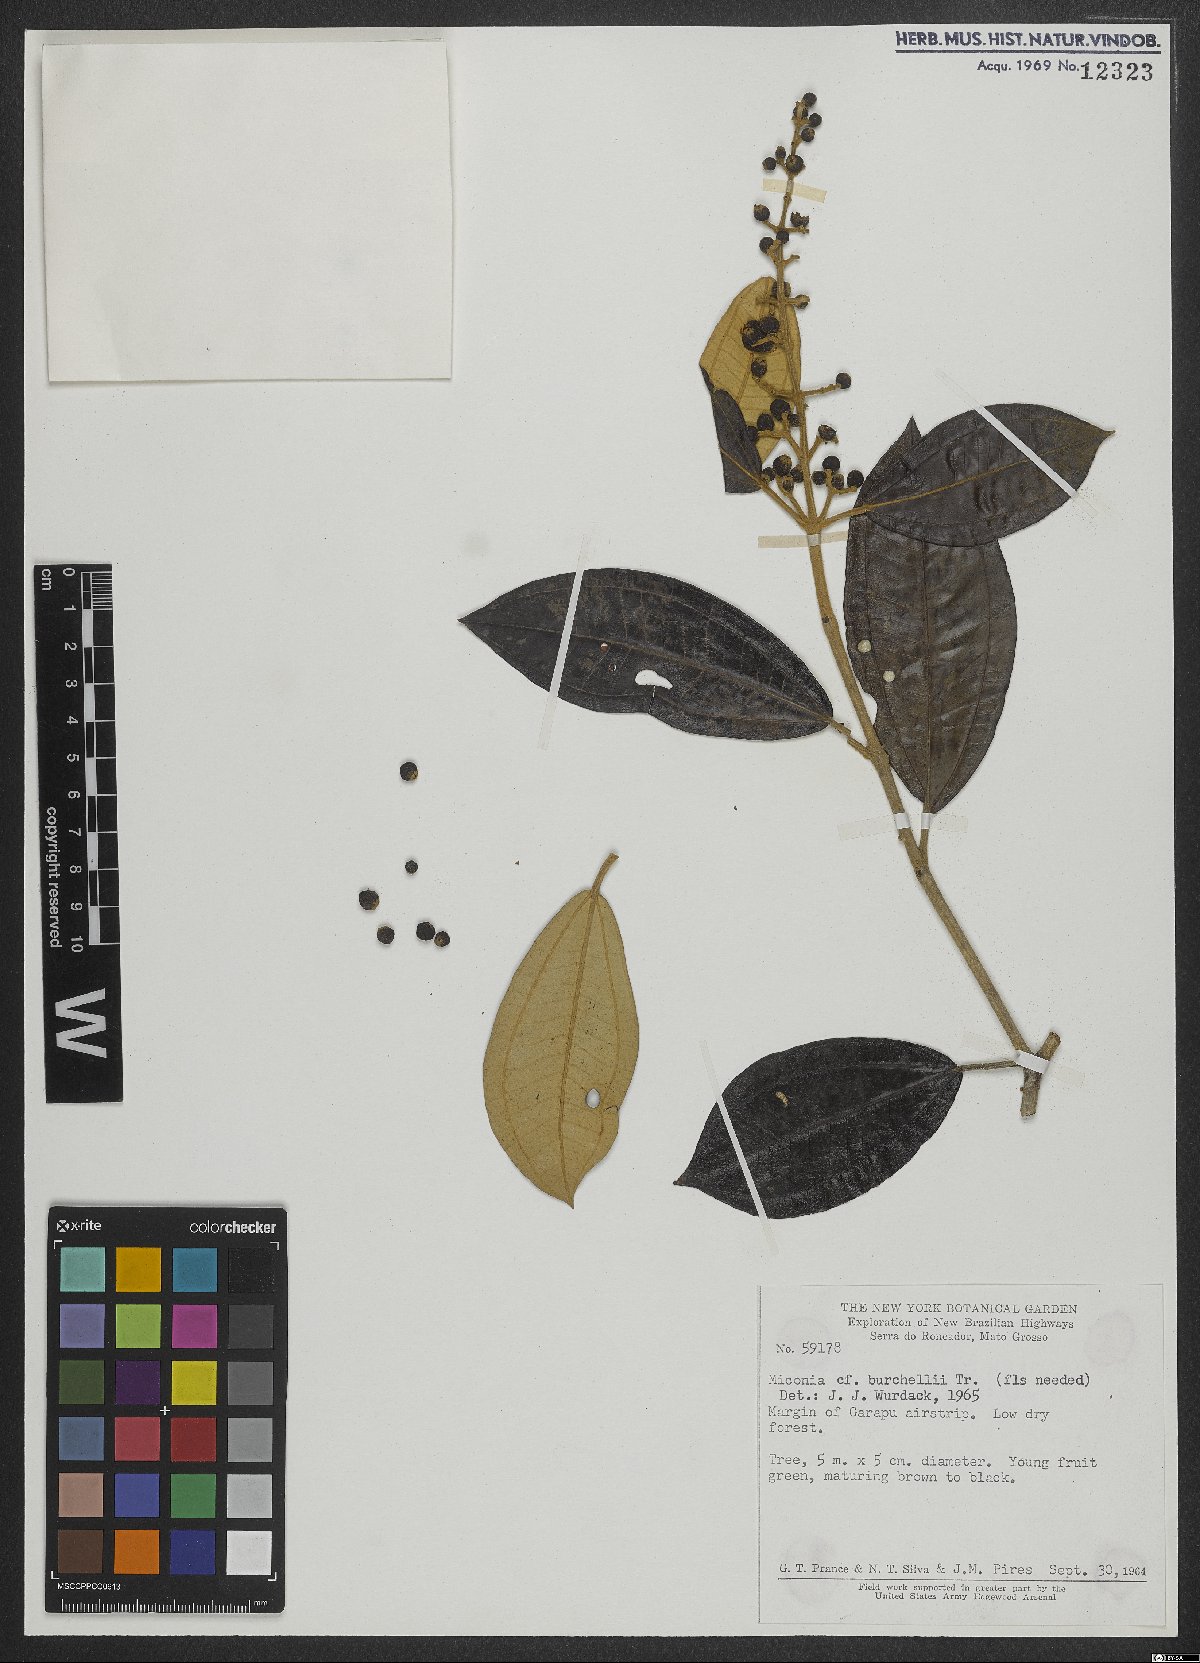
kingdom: Plantae
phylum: Tracheophyta
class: Magnoliopsida
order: Myrtales
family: Melastomataceae
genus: Miconia
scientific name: Miconia burchellii
